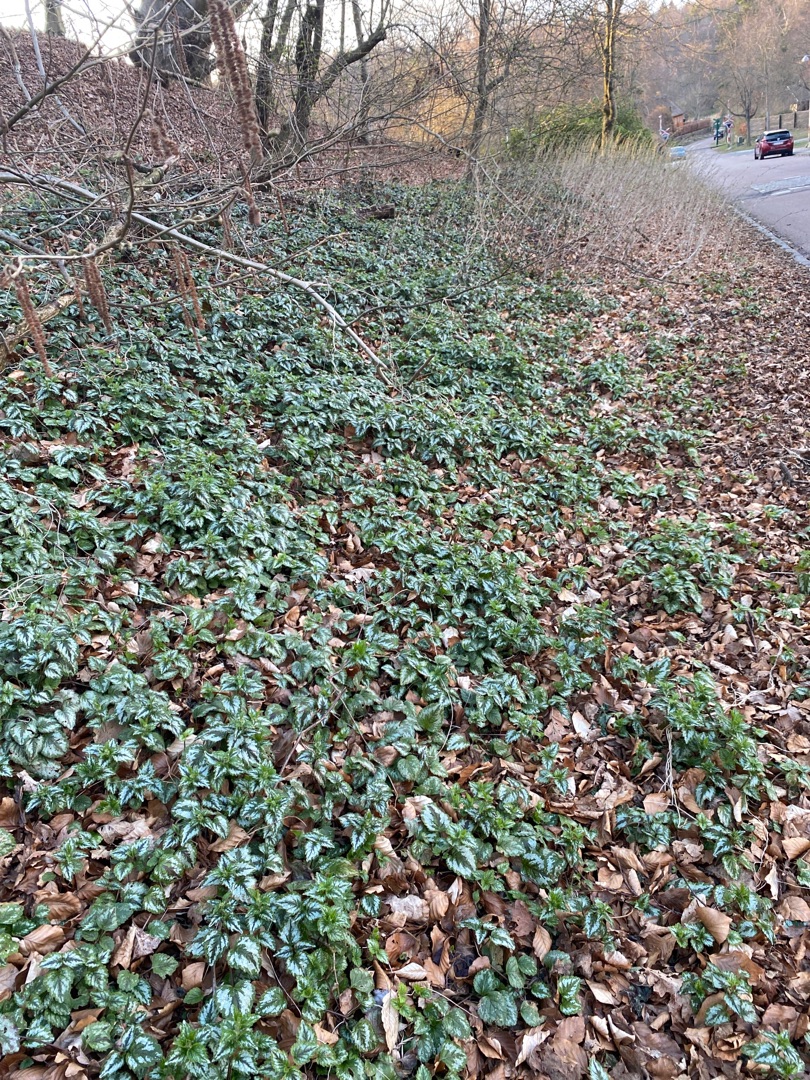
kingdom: Plantae
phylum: Tracheophyta
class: Magnoliopsida
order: Lamiales
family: Lamiaceae
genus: Lamium
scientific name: Lamium galeobdolon
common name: Have-guldnælde
